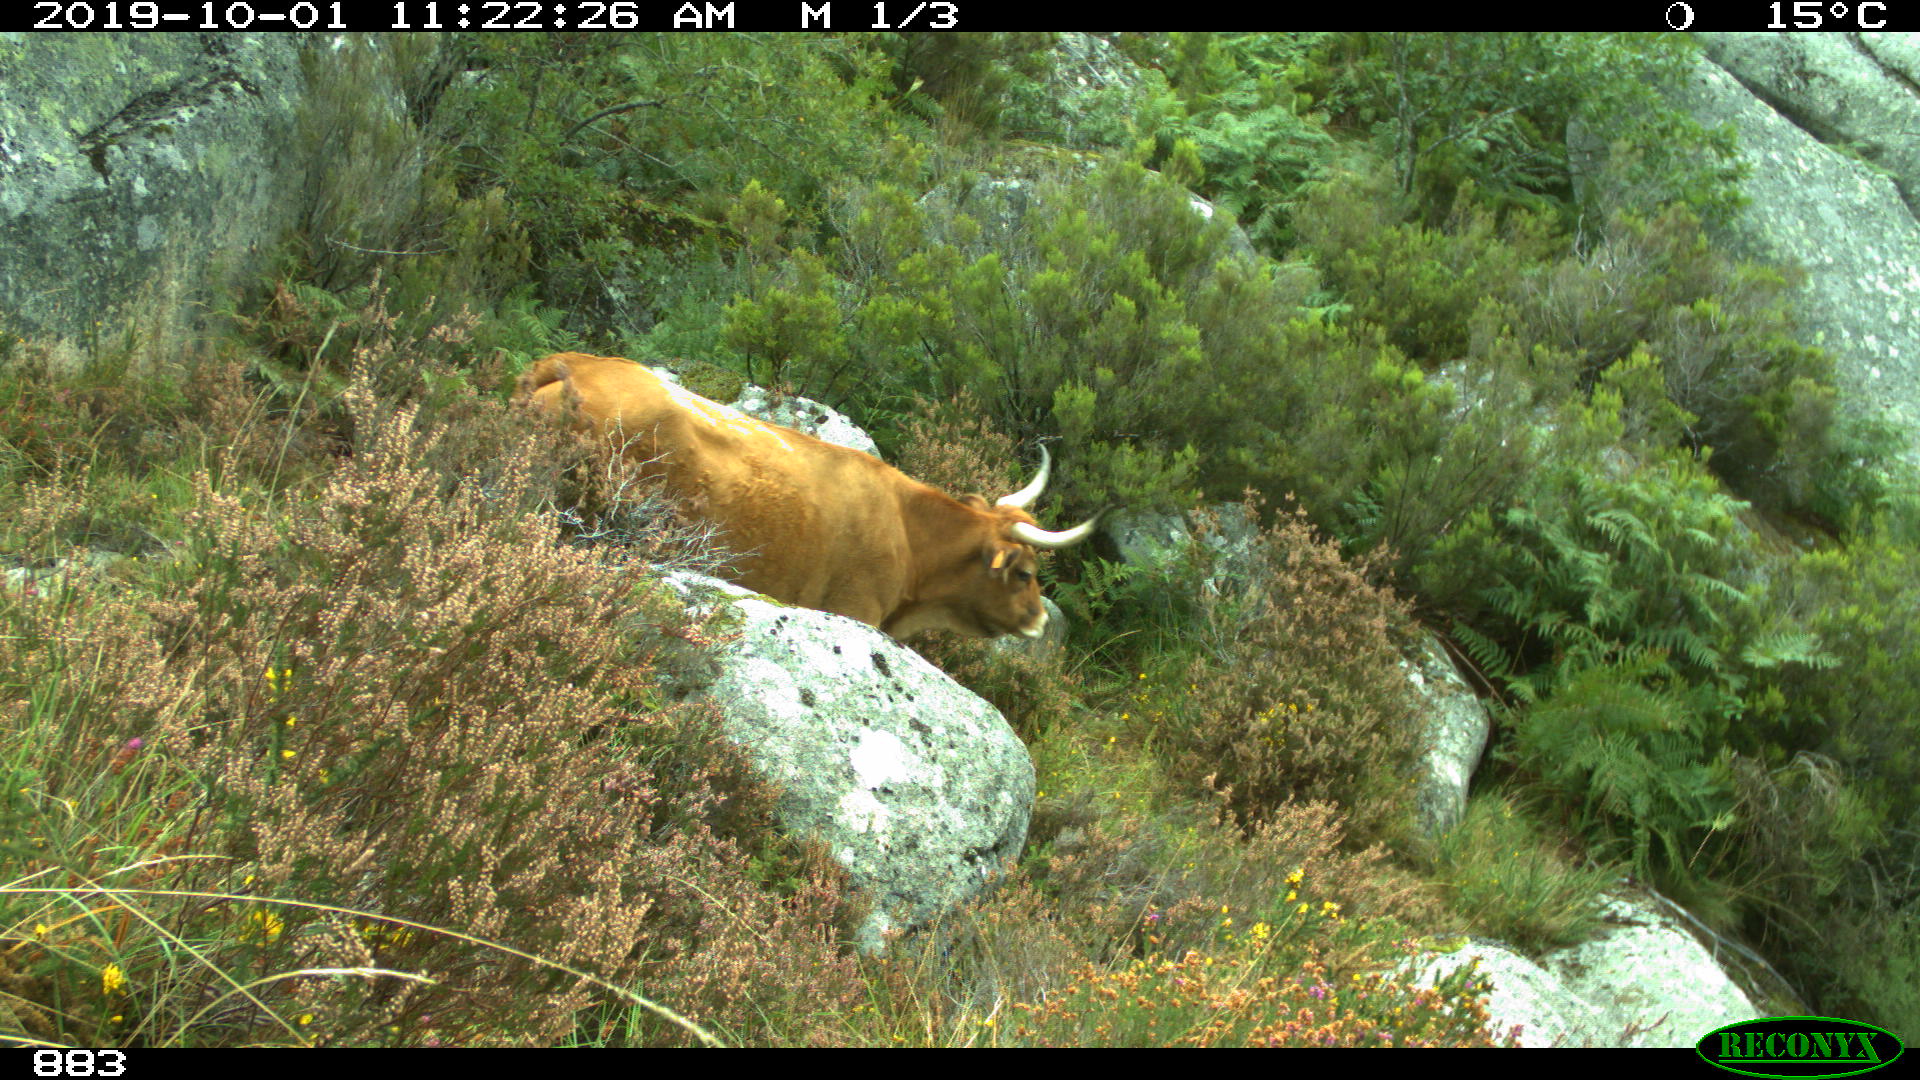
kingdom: Animalia
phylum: Chordata
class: Mammalia
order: Artiodactyla
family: Bovidae
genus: Bos
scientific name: Bos taurus
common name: Domesticated cattle
